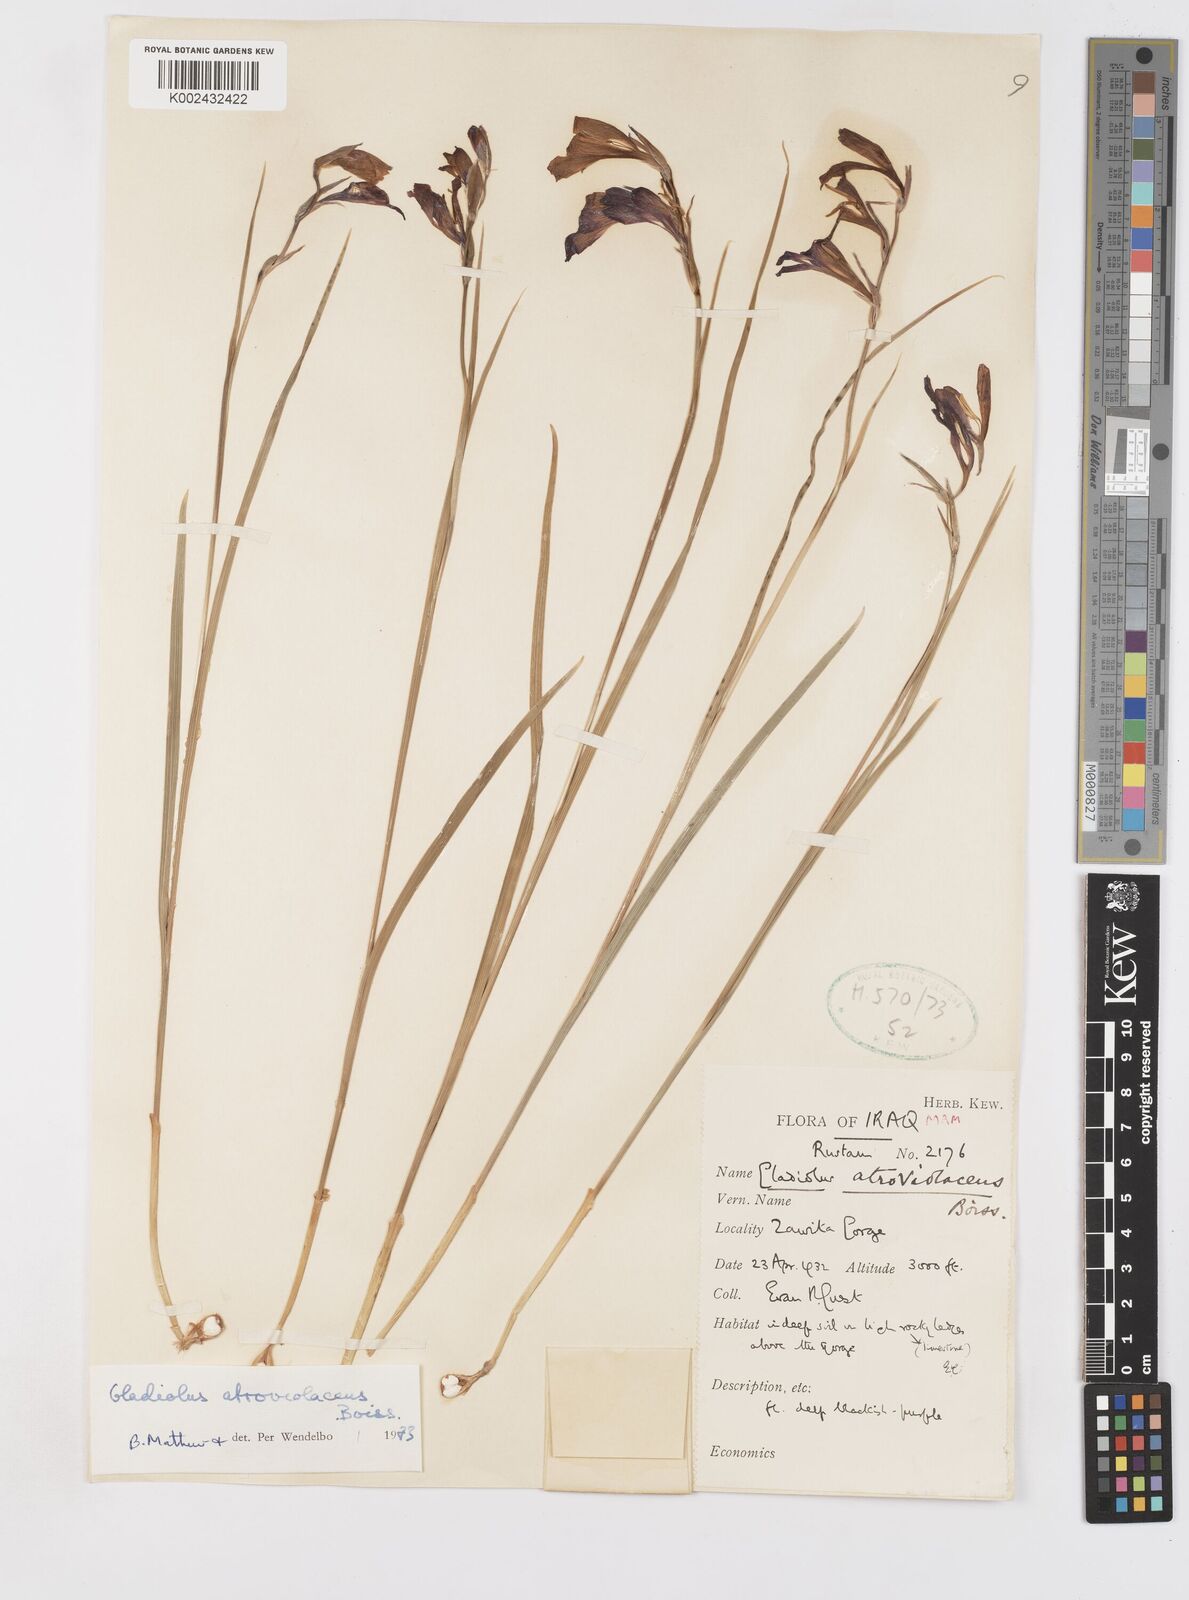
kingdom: Plantae
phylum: Tracheophyta
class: Liliopsida
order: Asparagales
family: Iridaceae
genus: Gladiolus
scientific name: Gladiolus atroviolaceus
